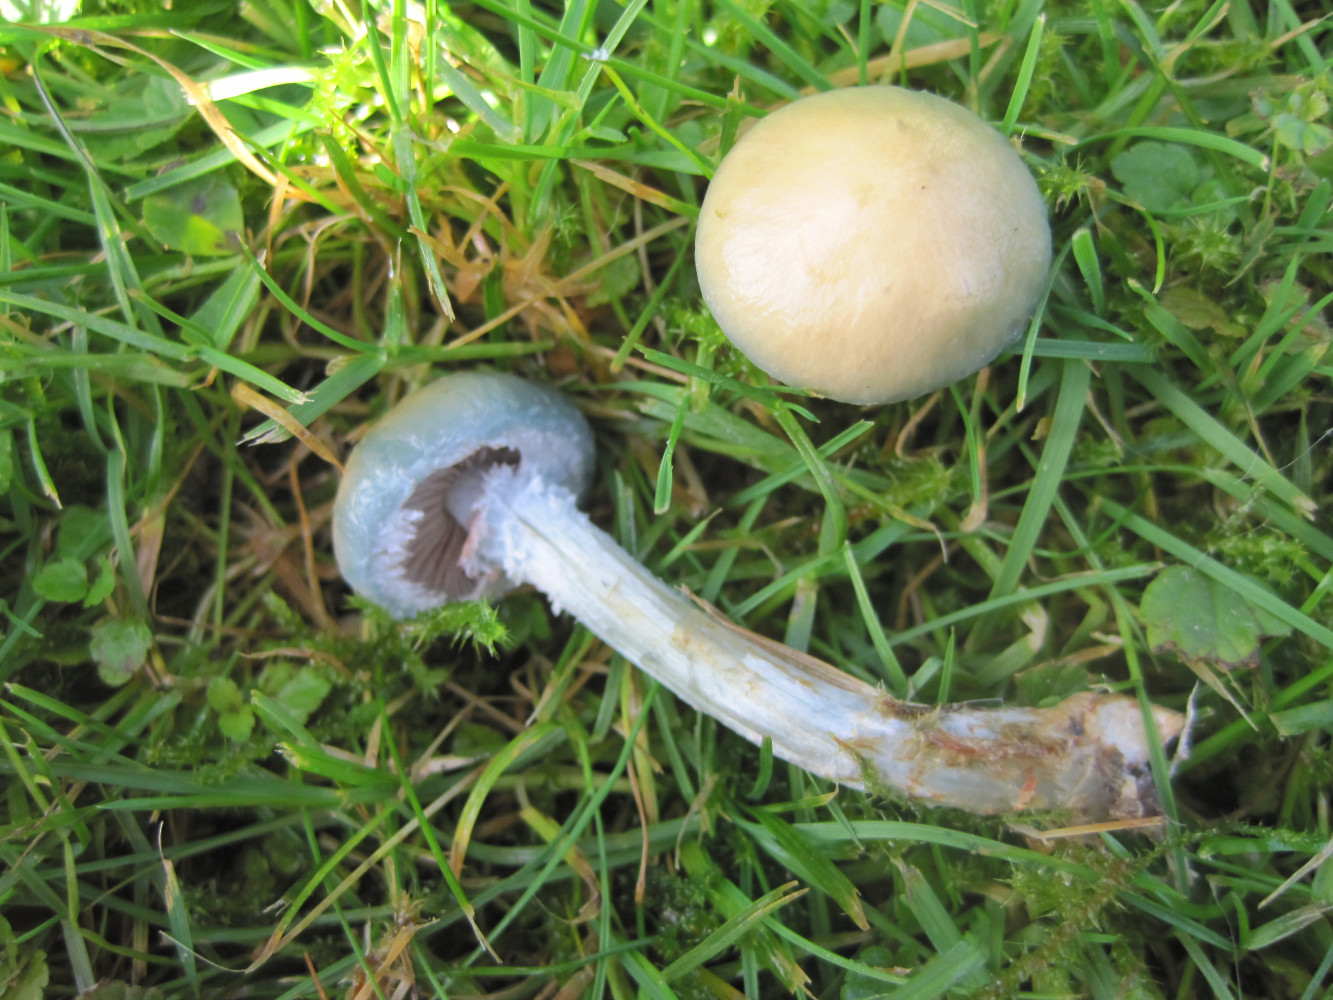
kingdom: Fungi
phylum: Basidiomycota
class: Agaricomycetes
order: Agaricales
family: Strophariaceae
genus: Stropharia
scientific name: Stropharia cyanea
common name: blågrøn bredblad
